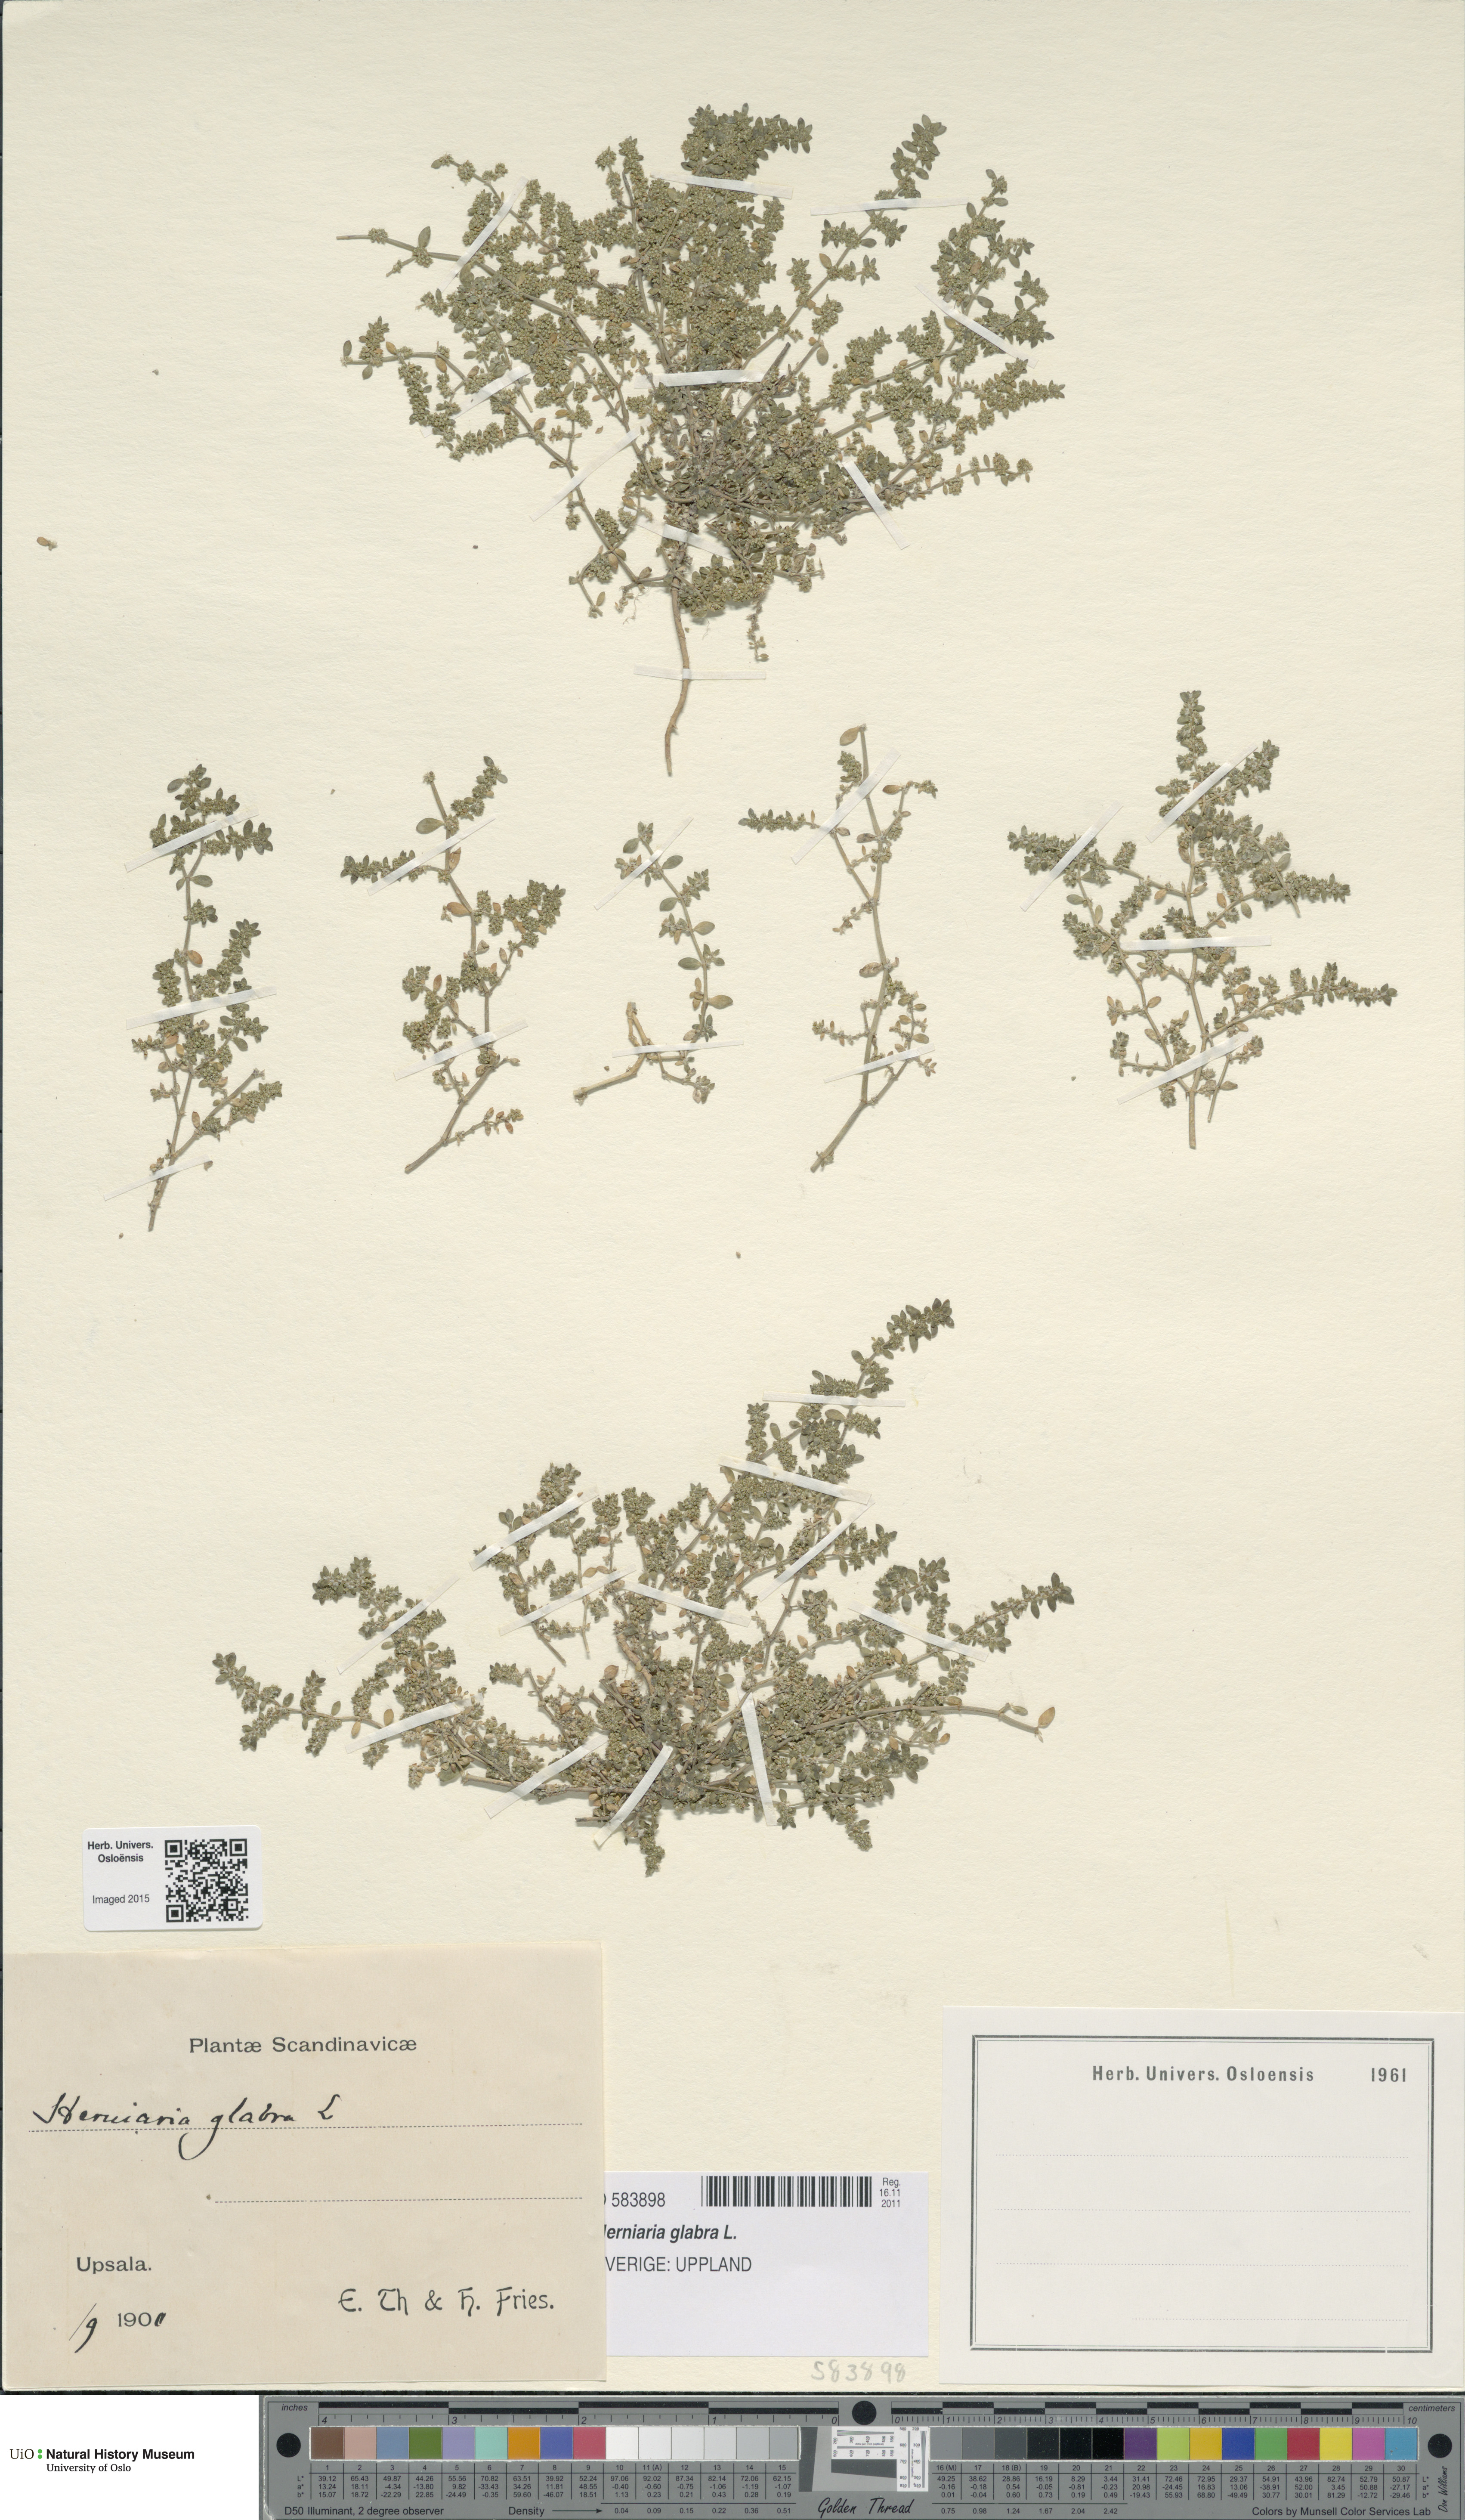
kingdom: Plantae
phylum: Tracheophyta
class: Magnoliopsida
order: Caryophyllales
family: Caryophyllaceae
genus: Herniaria
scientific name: Herniaria glabra
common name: Smooth rupturewort
